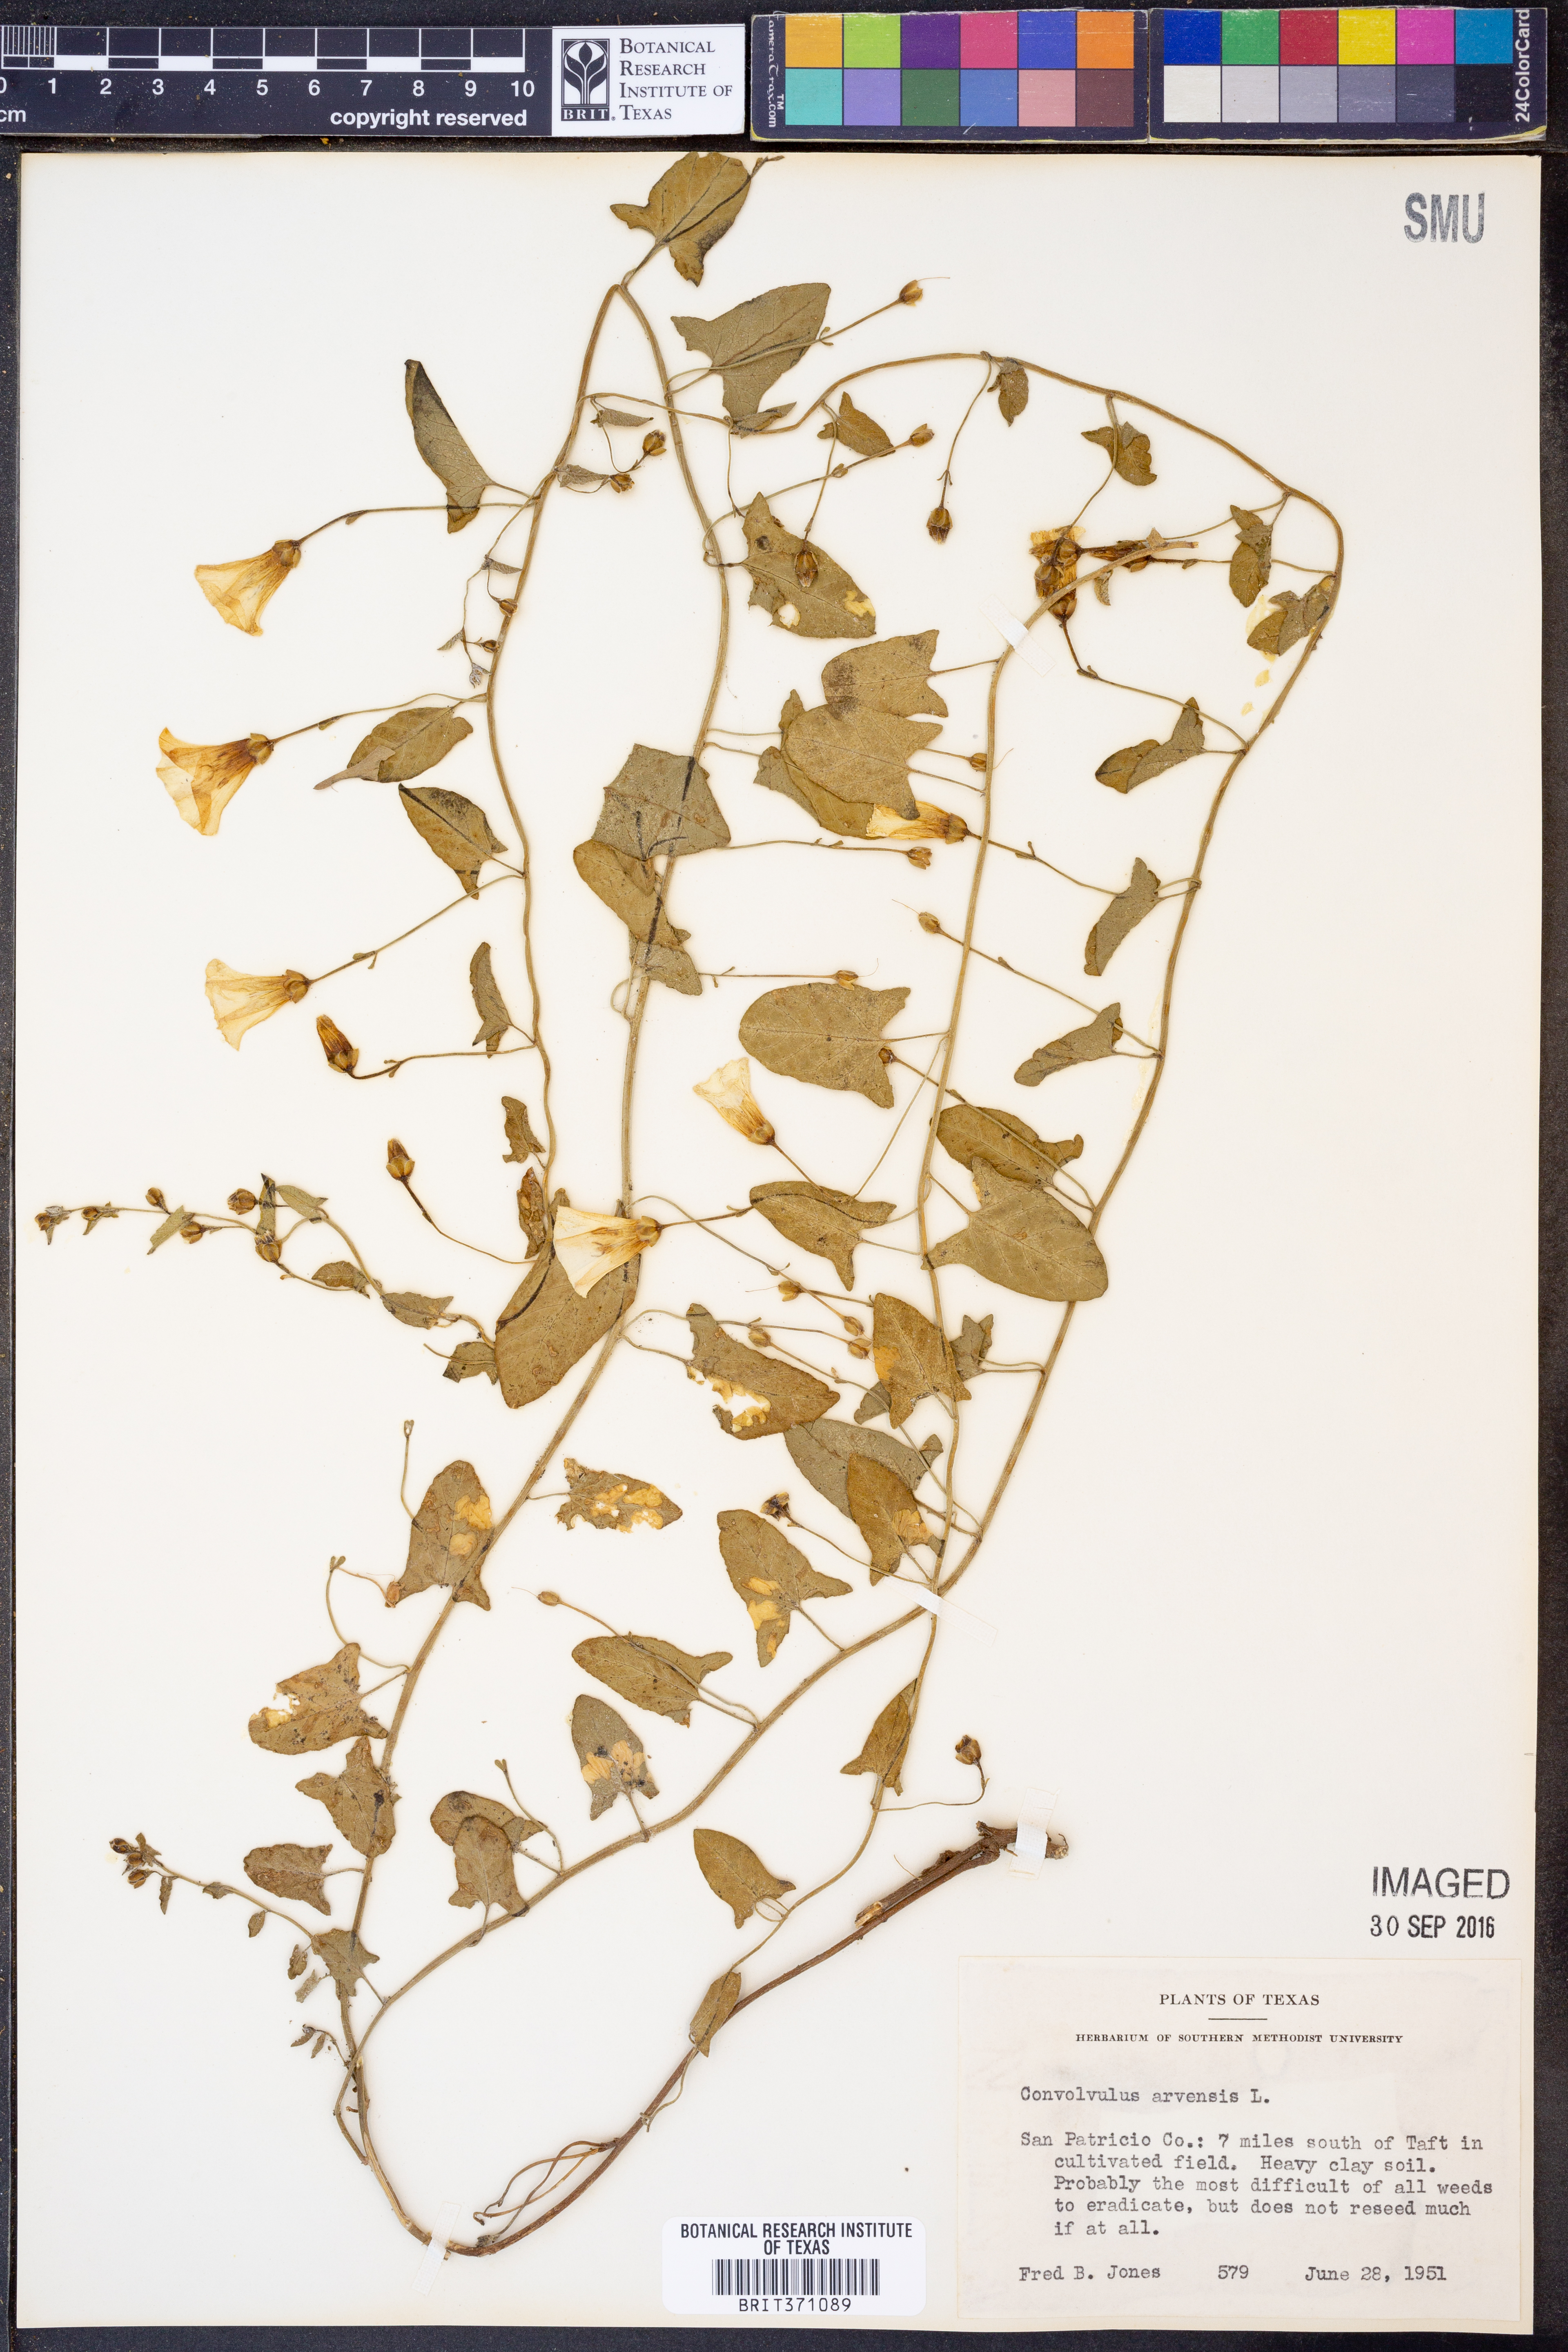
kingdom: Plantae
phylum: Tracheophyta
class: Magnoliopsida
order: Solanales
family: Convolvulaceae
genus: Convolvulus
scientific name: Convolvulus arvensis
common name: Field bindweed
